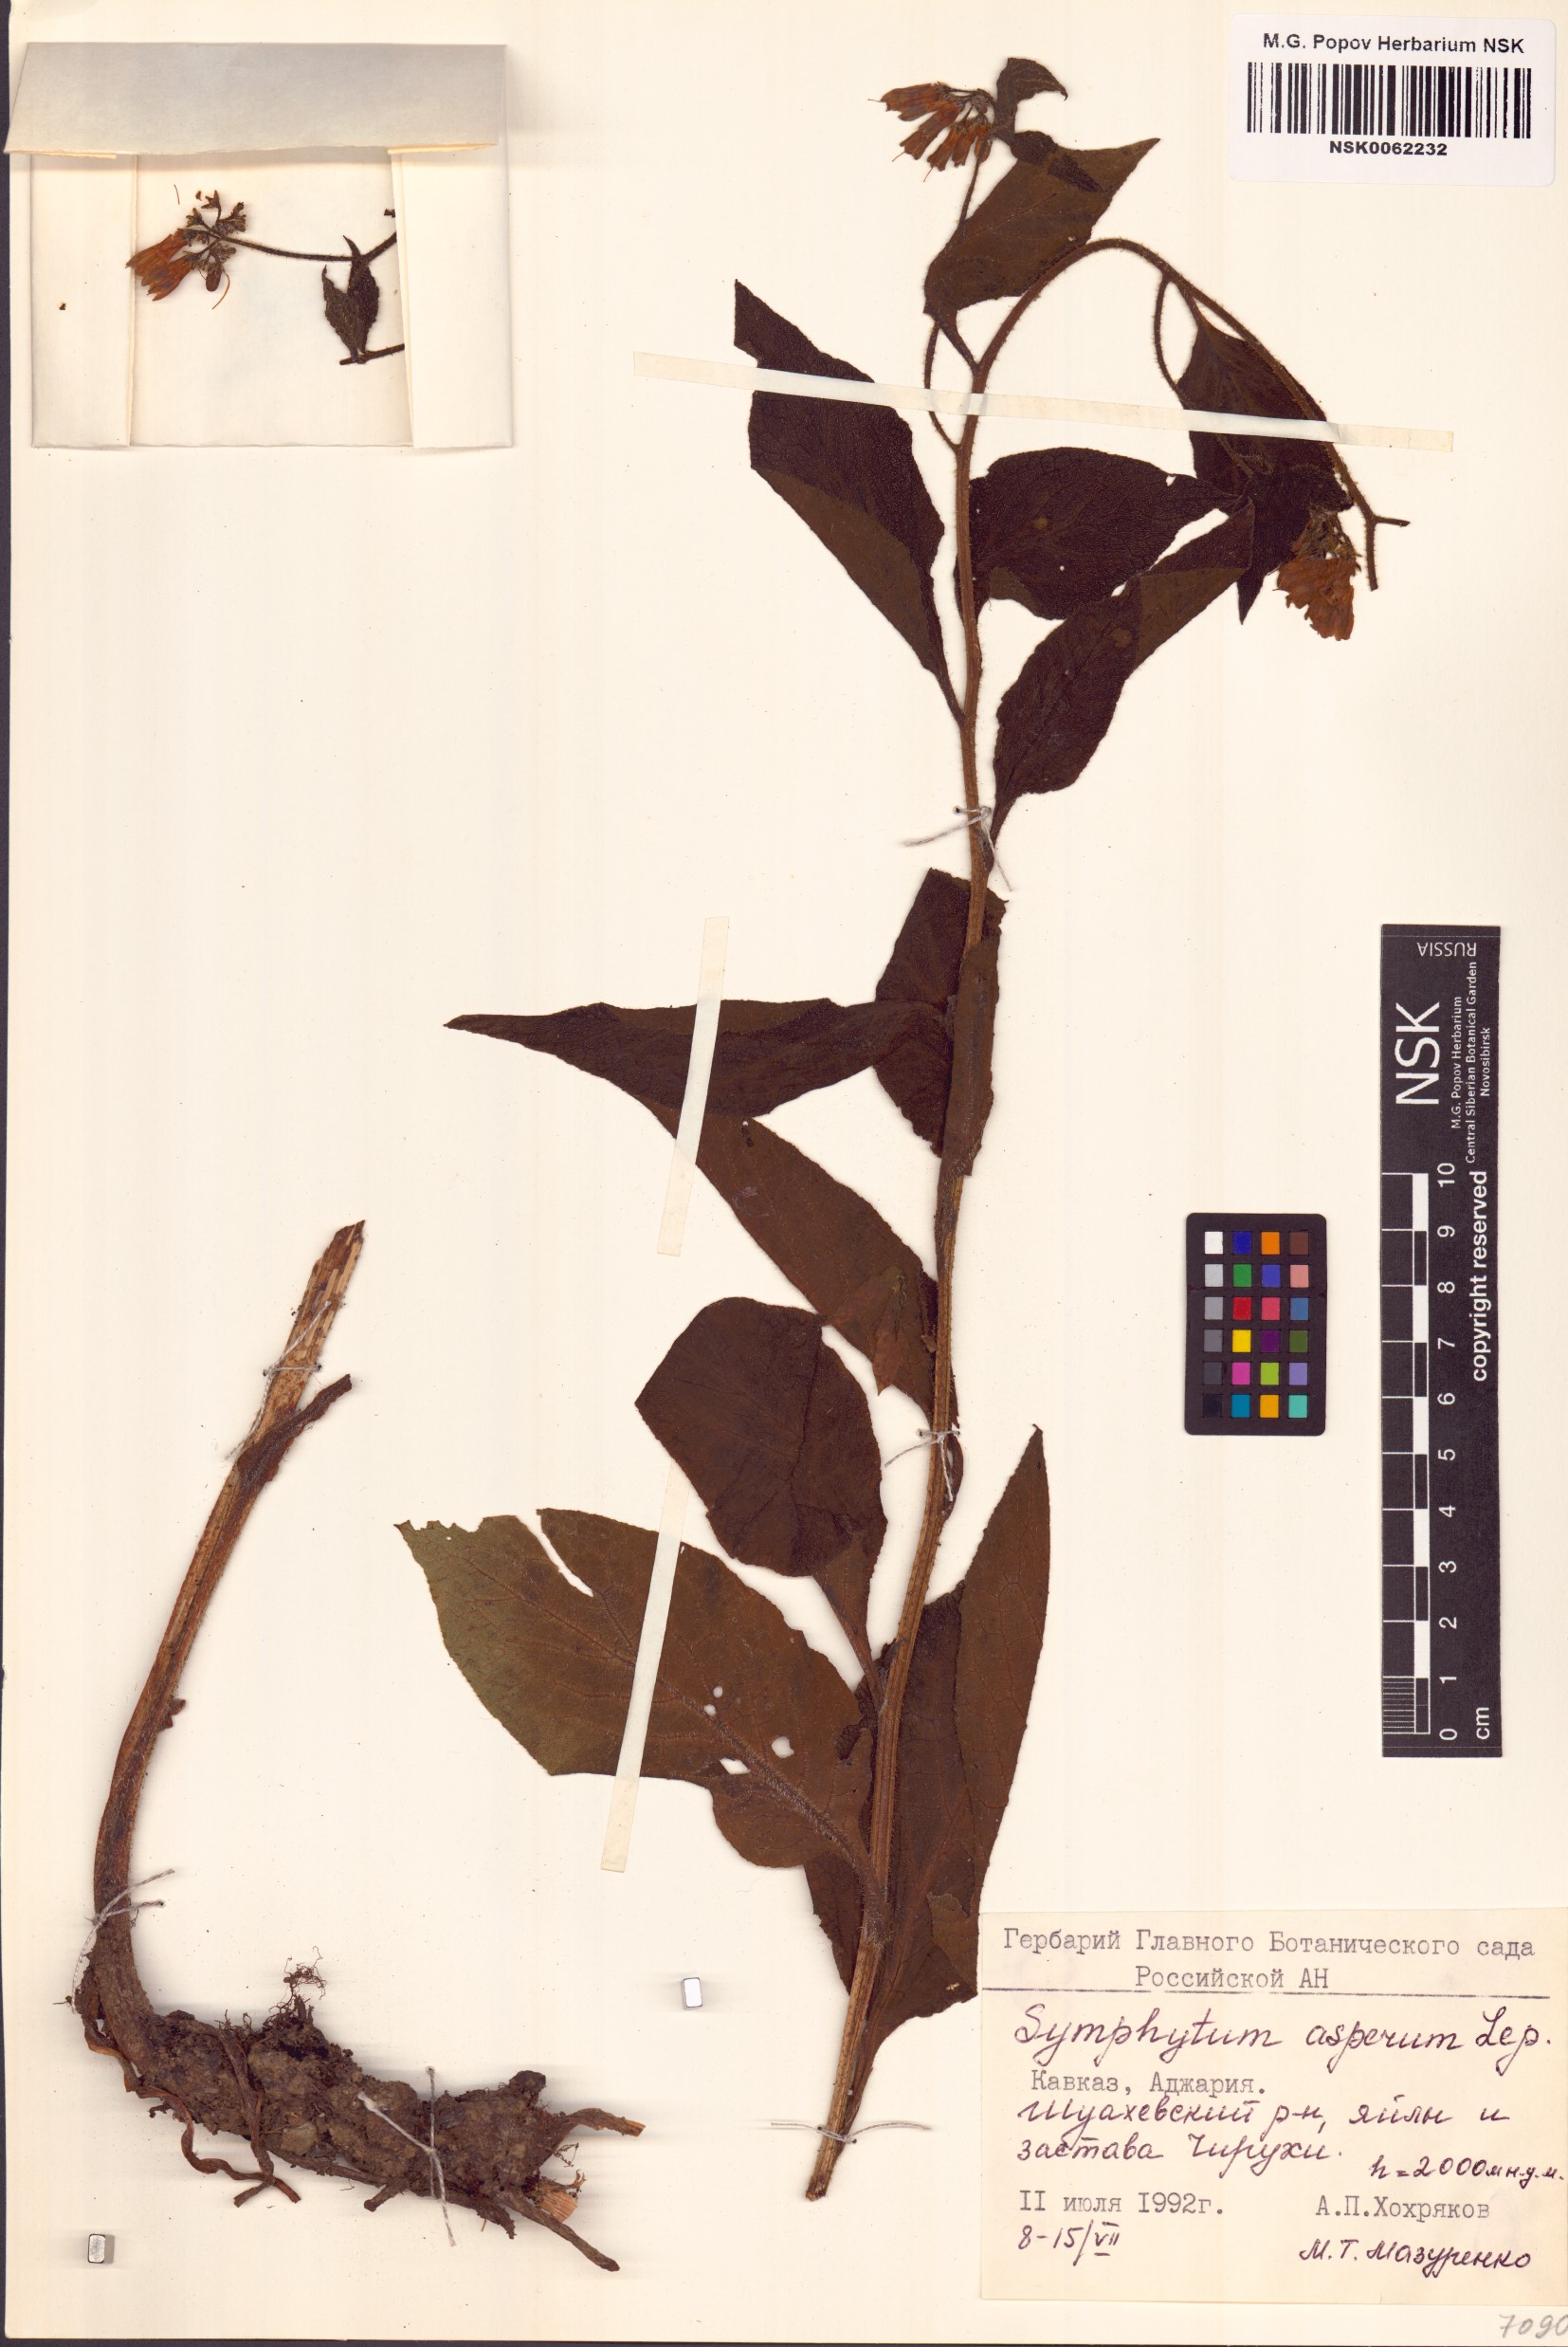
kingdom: Plantae
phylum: Tracheophyta
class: Magnoliopsida
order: Boraginales
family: Boraginaceae
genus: Symphytum
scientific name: Symphytum asperum
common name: Prickly comfrey
